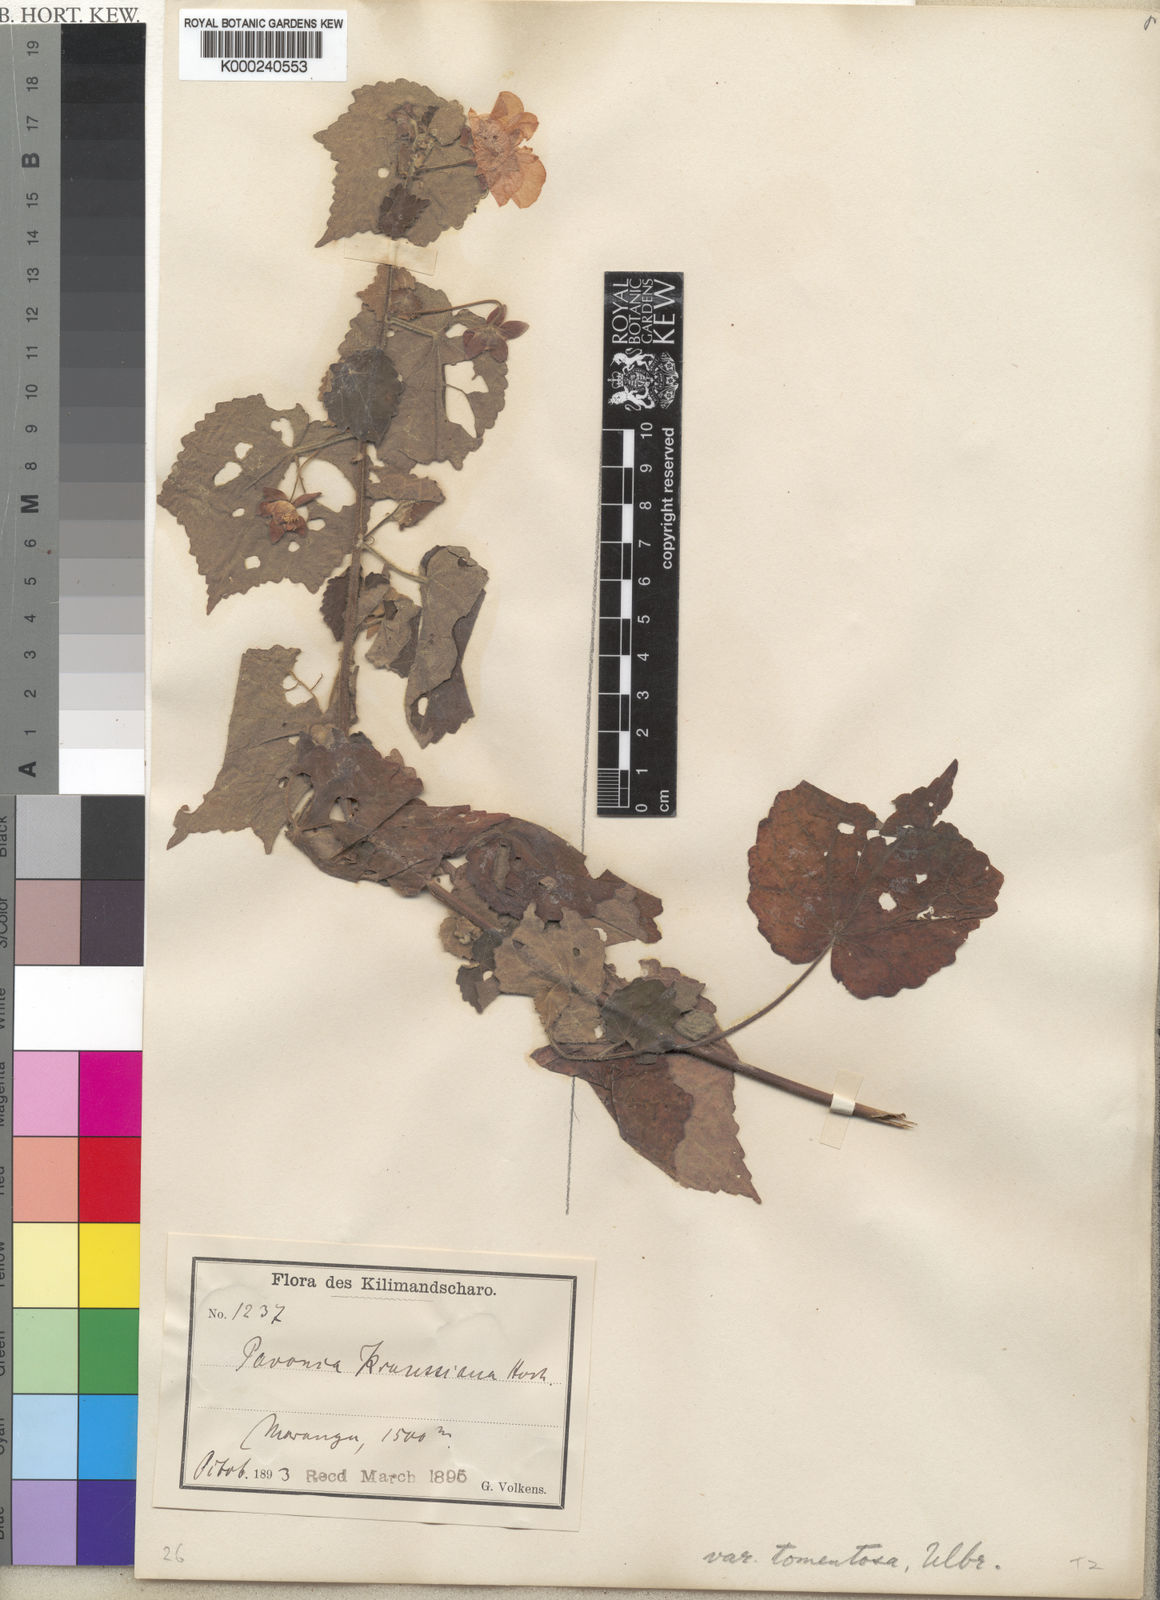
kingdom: Plantae
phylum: Tracheophyta
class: Magnoliopsida
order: Malvales
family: Malvaceae
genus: Pavonia
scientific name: Pavonia burchellii
